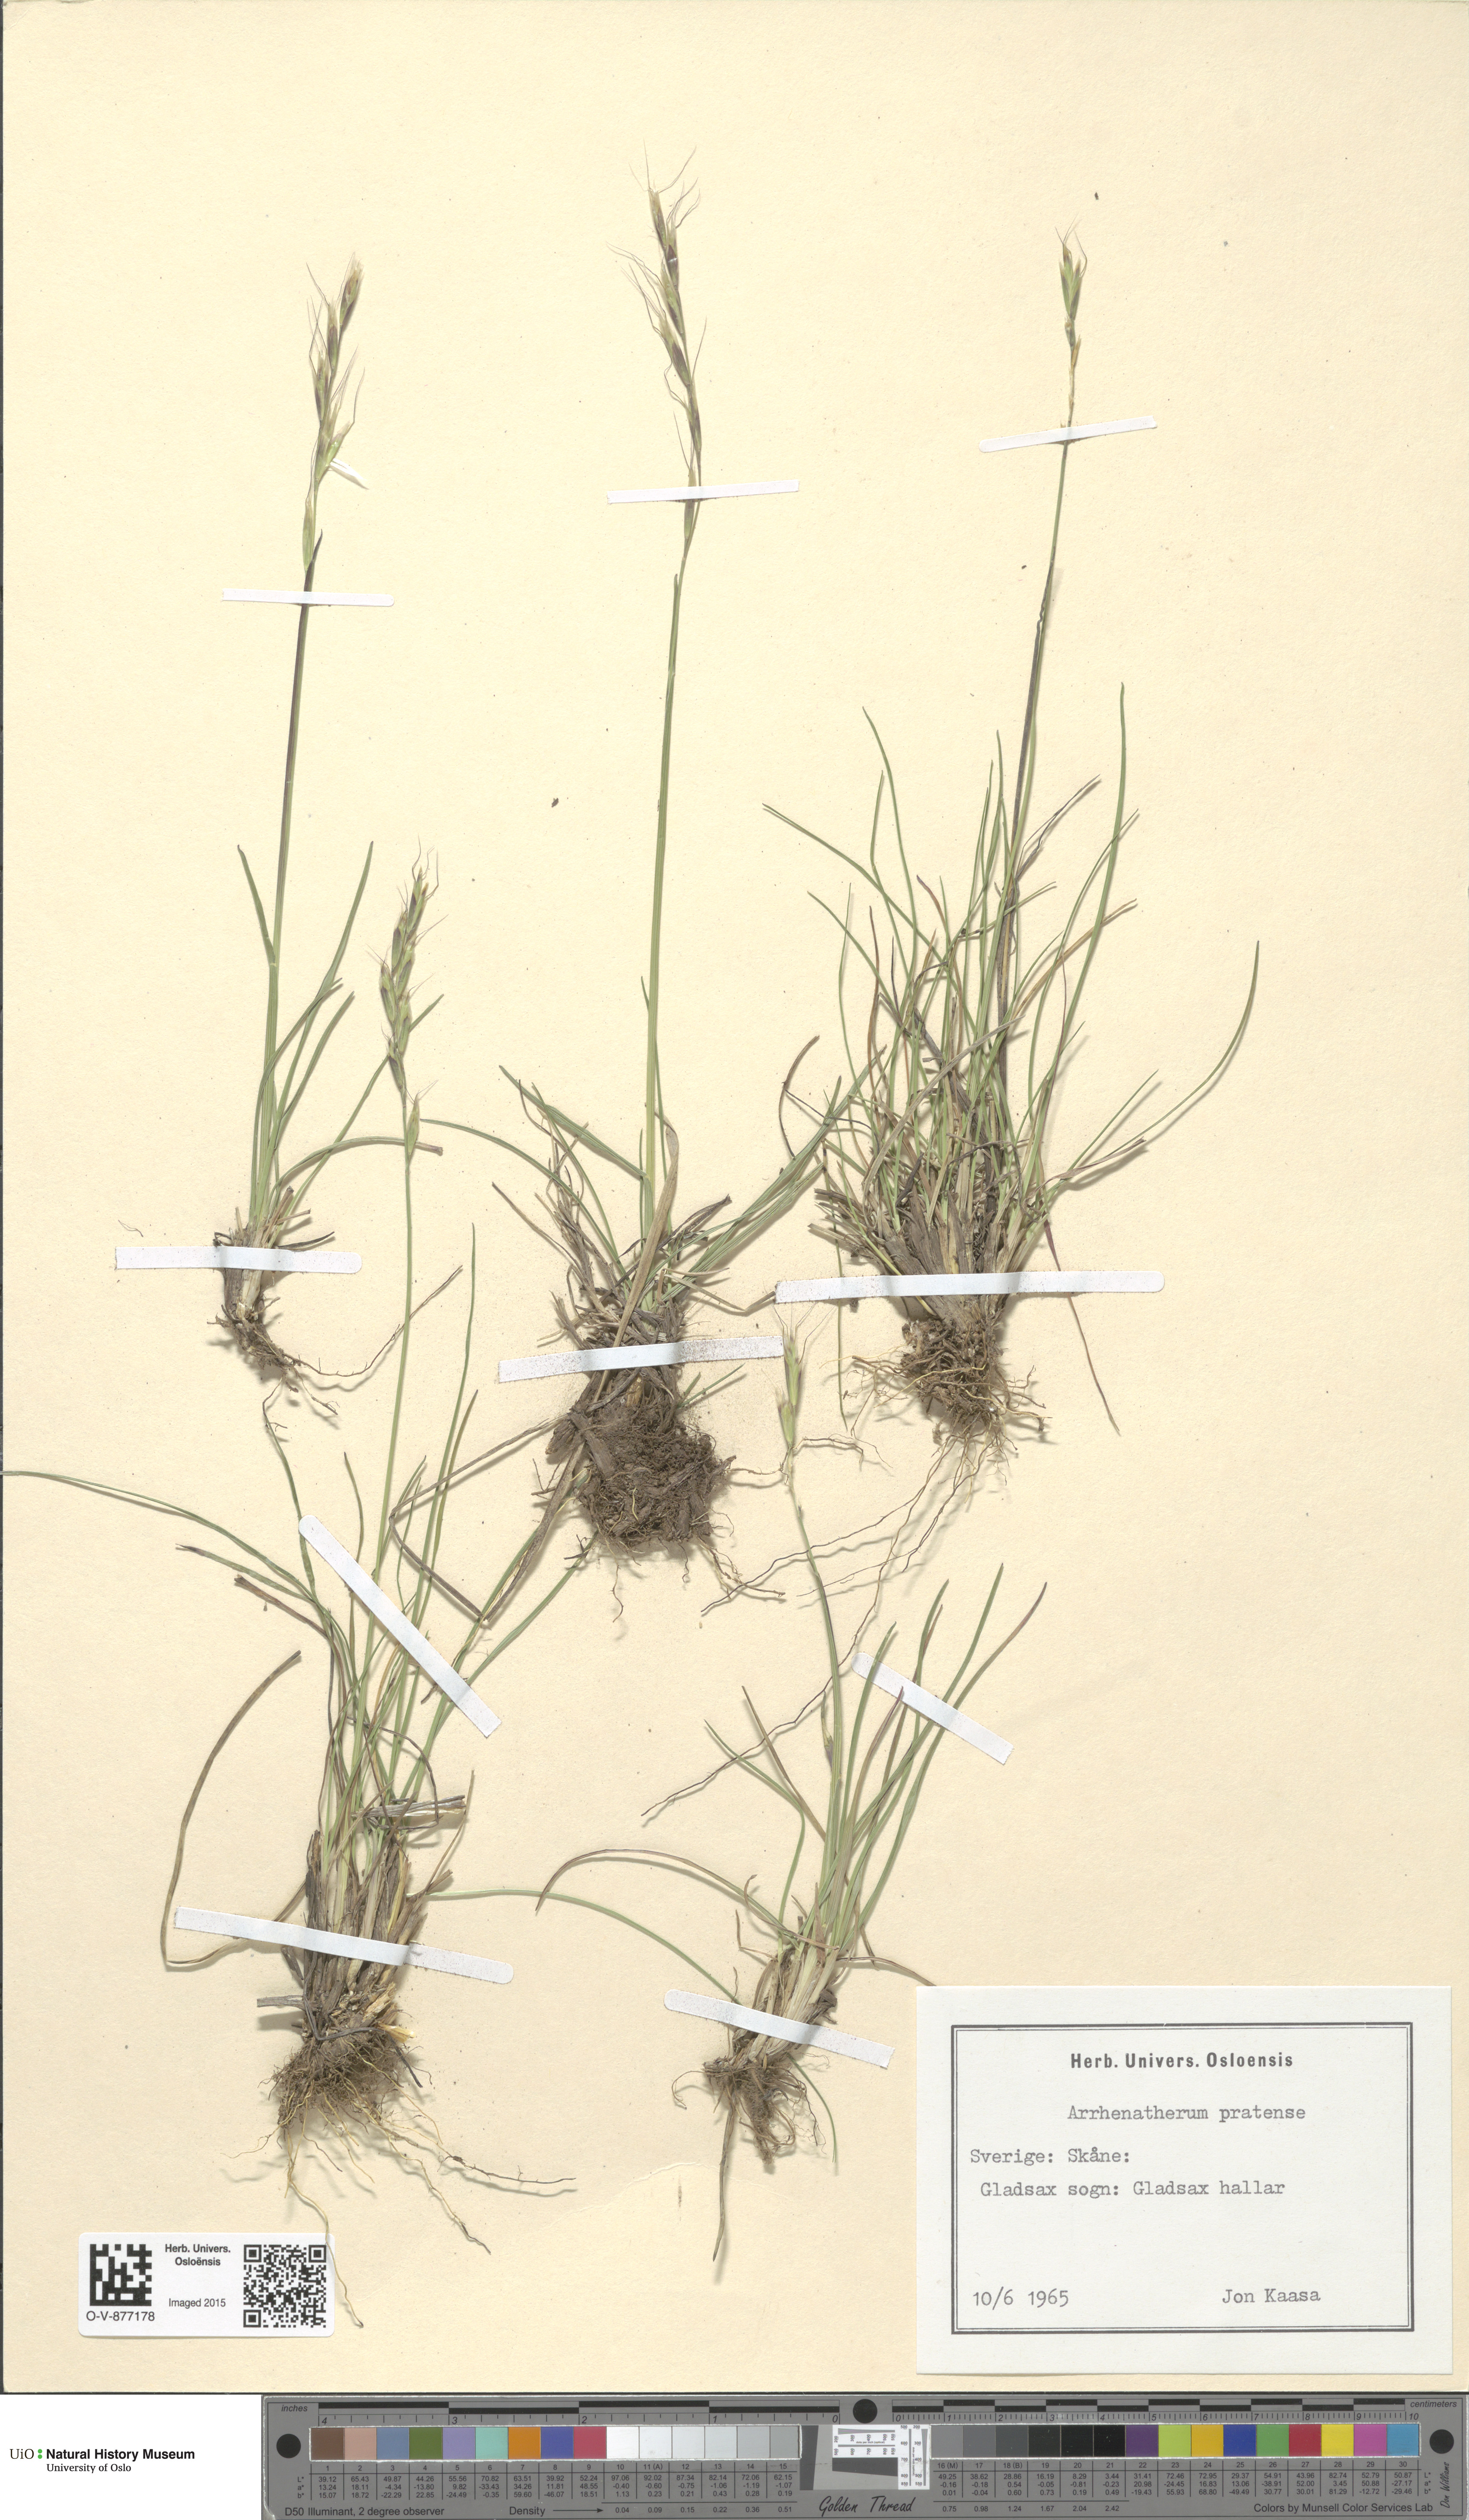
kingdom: Plantae
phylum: Tracheophyta
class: Liliopsida
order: Poales
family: Poaceae
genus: Helictochloa
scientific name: Helictochloa pratensis
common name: Meadow oat grass
